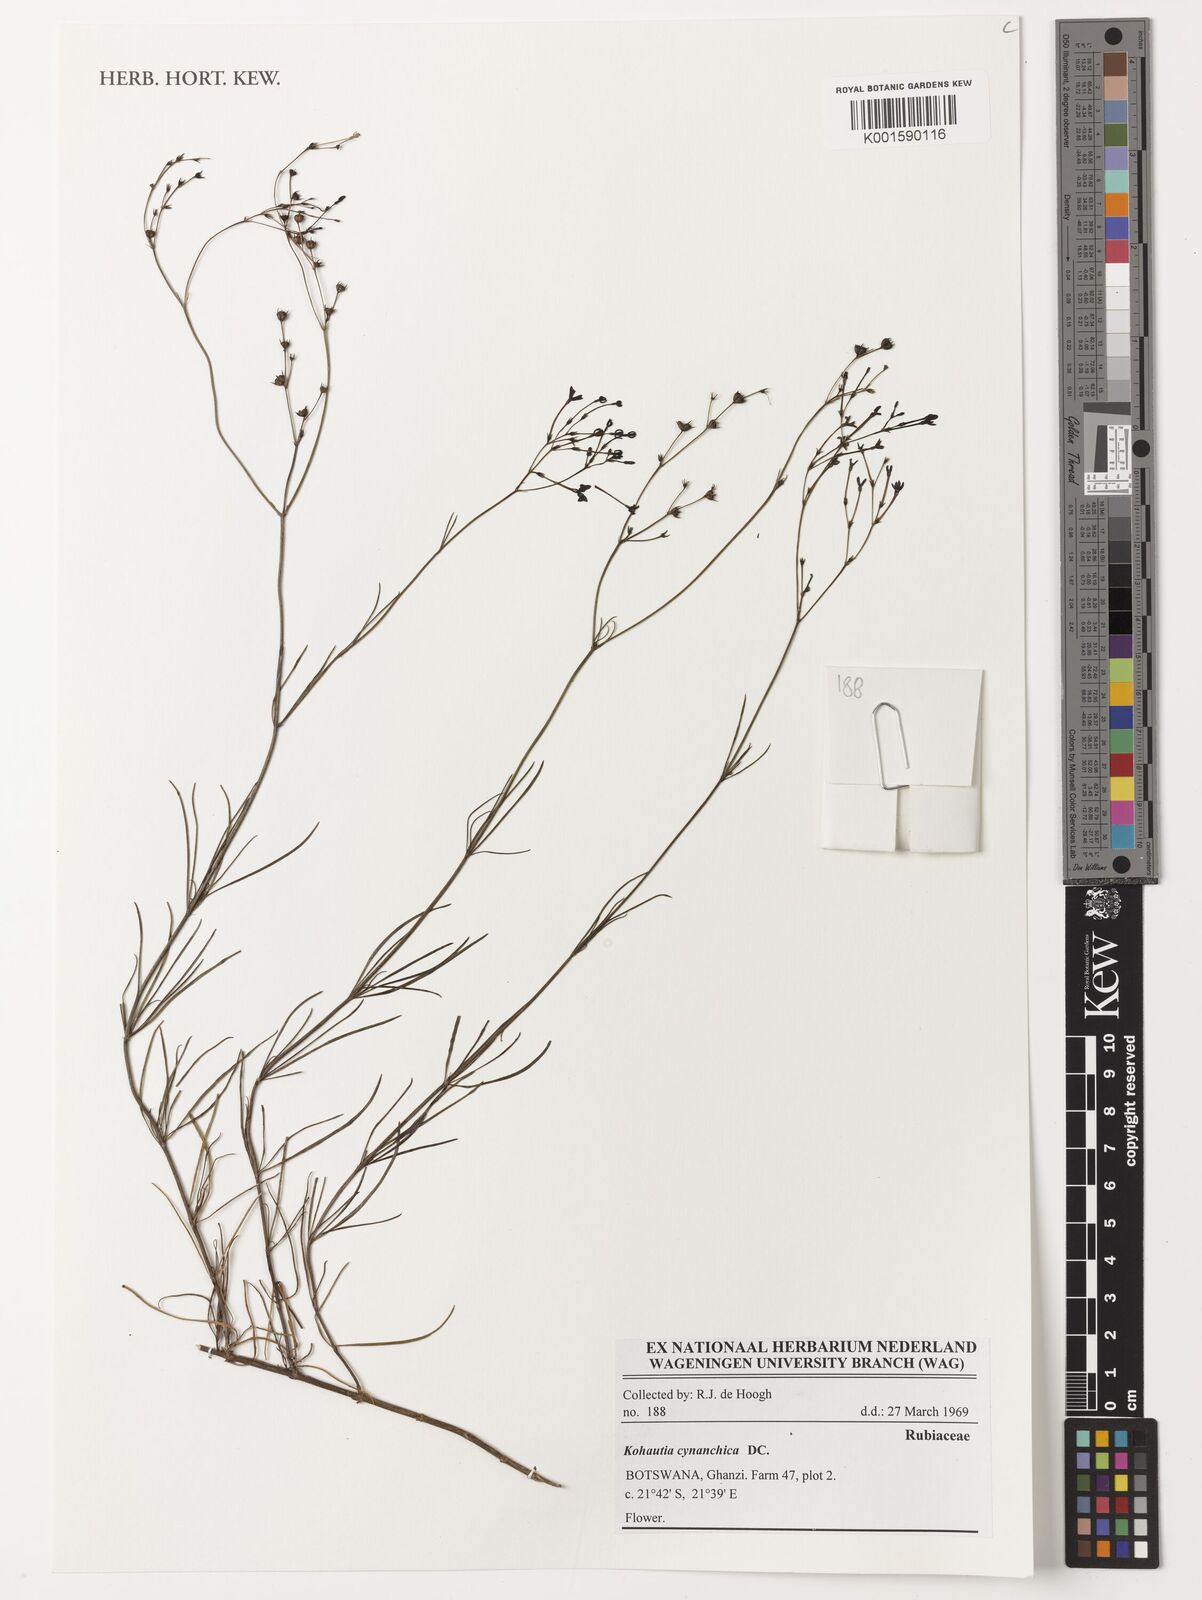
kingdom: Plantae
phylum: Tracheophyta
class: Magnoliopsida
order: Gentianales
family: Rubiaceae
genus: Kohautia
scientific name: Kohautia cynanchica
